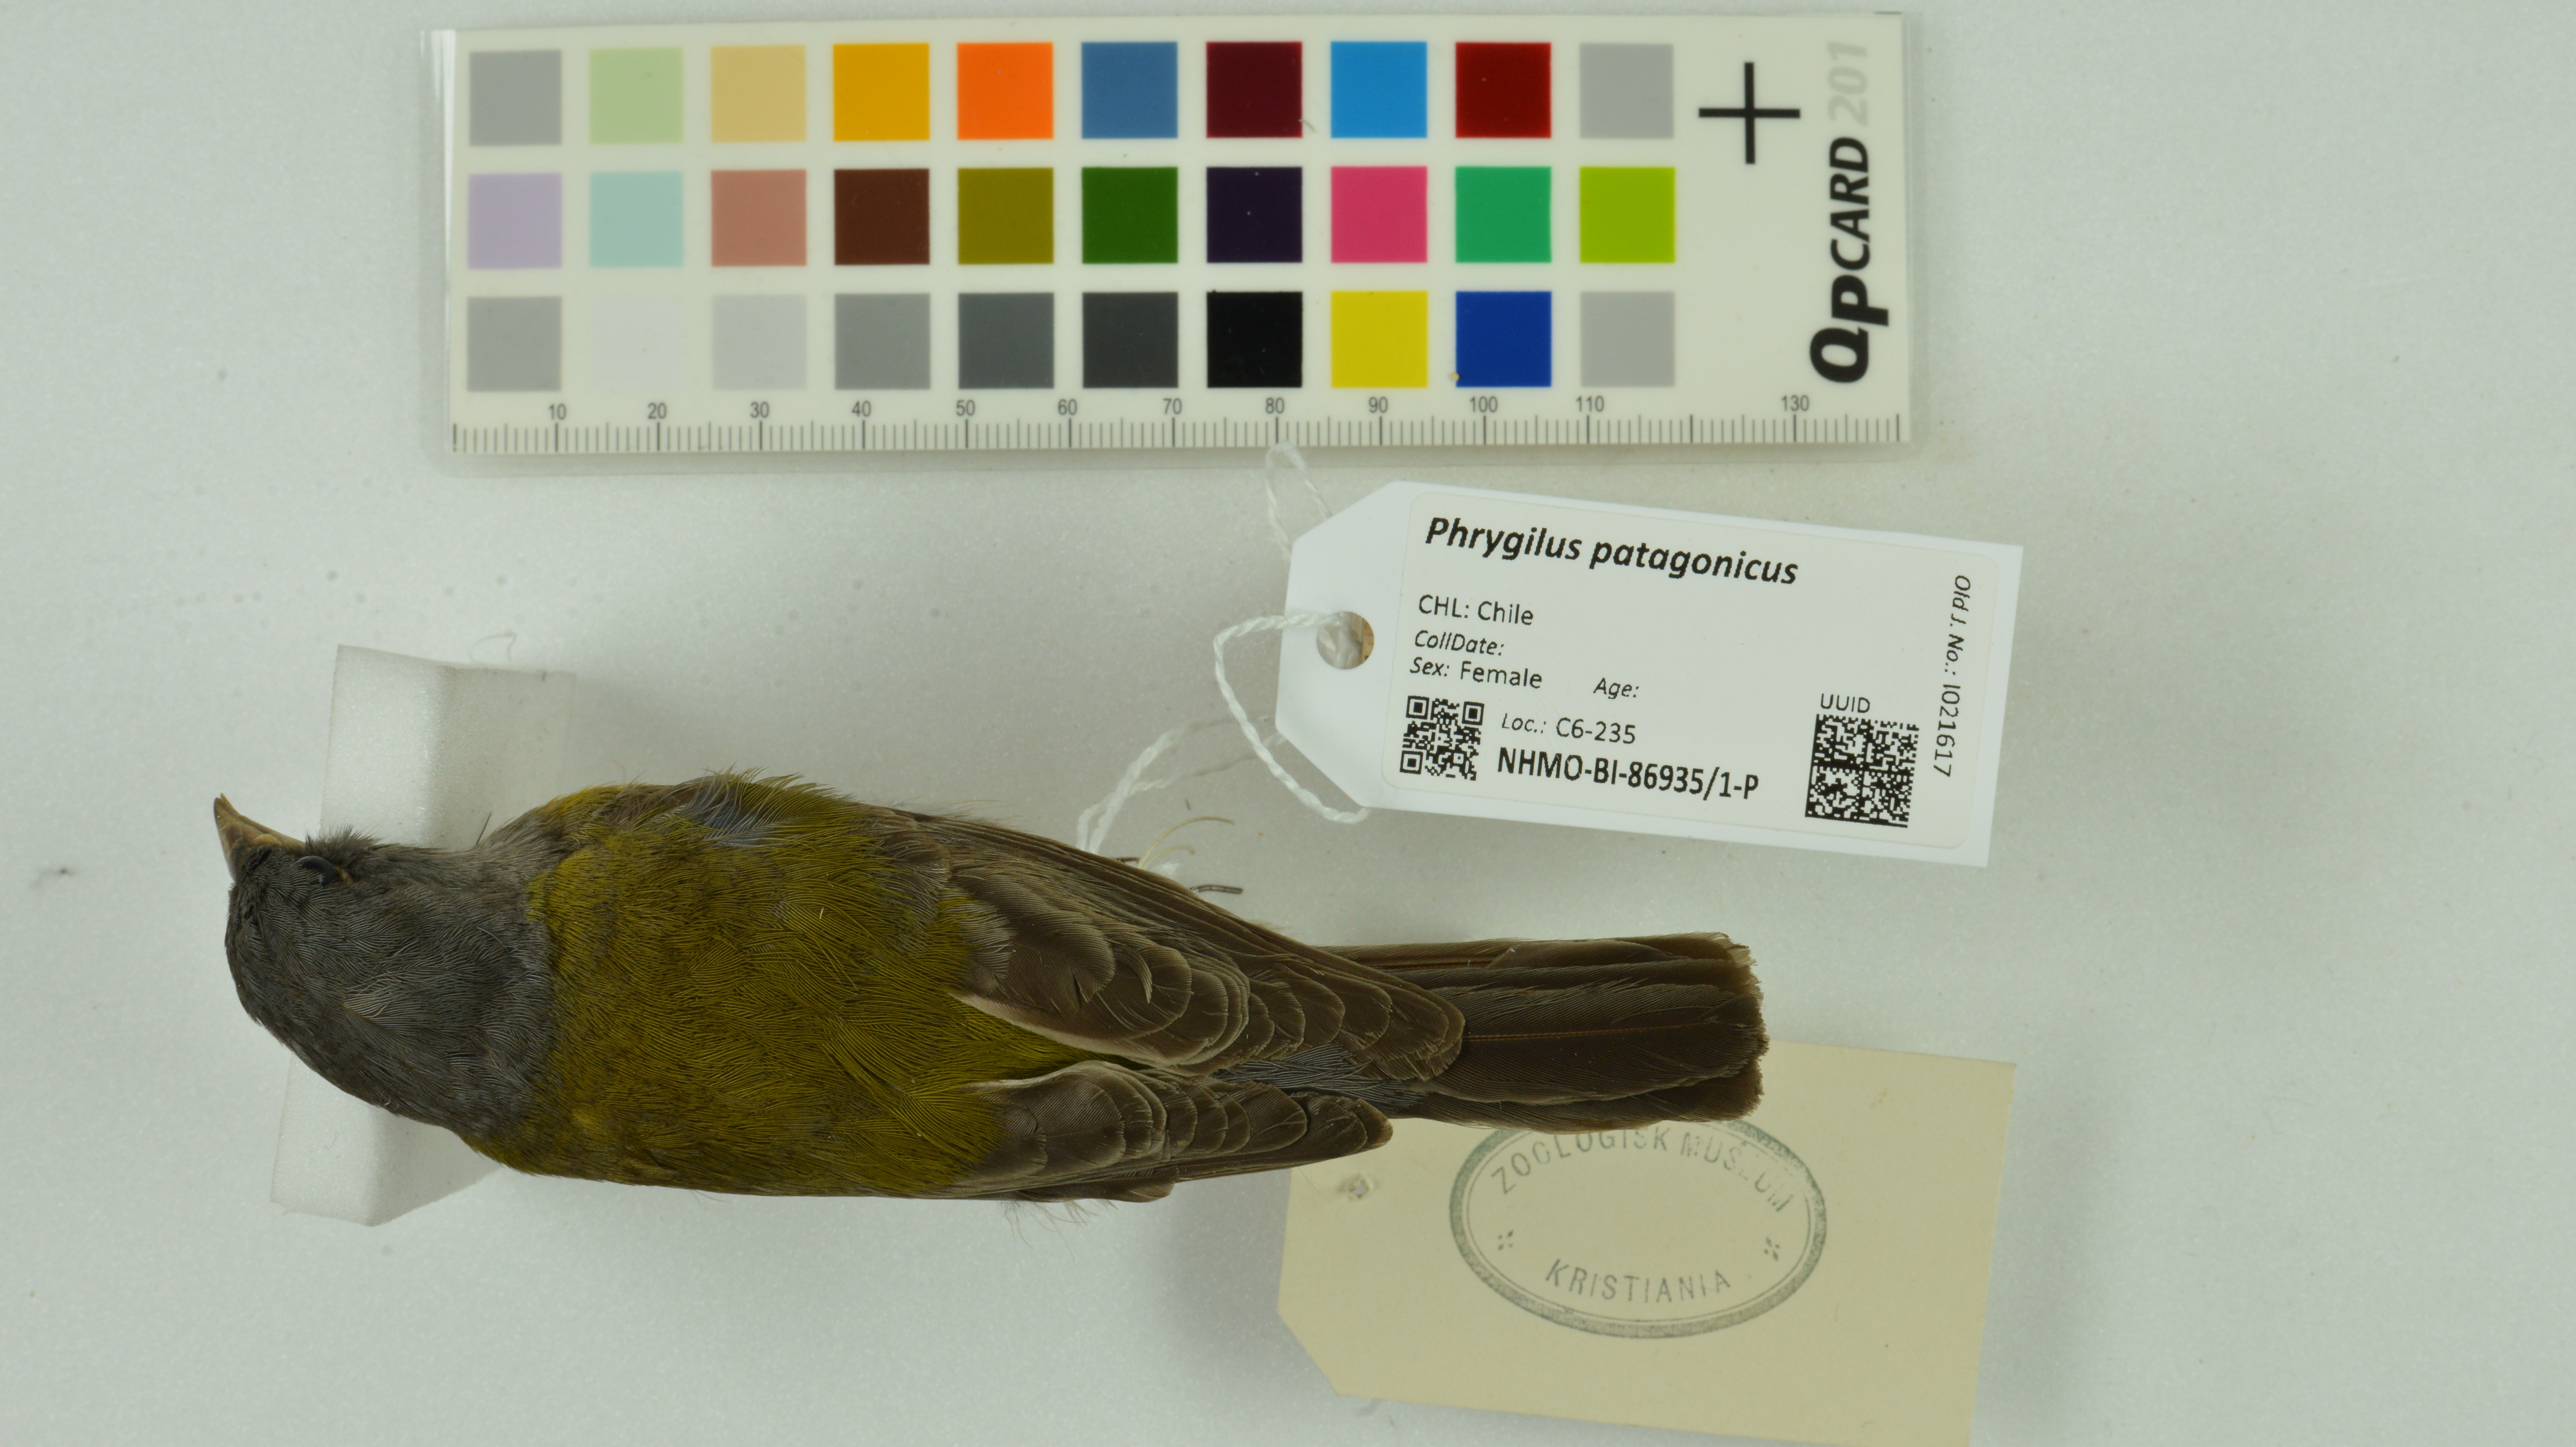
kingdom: Animalia
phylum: Chordata
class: Aves
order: Passeriformes
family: Thraupidae
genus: Phrygilus
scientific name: Phrygilus patagonicus
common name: Patagonian sierra finch
